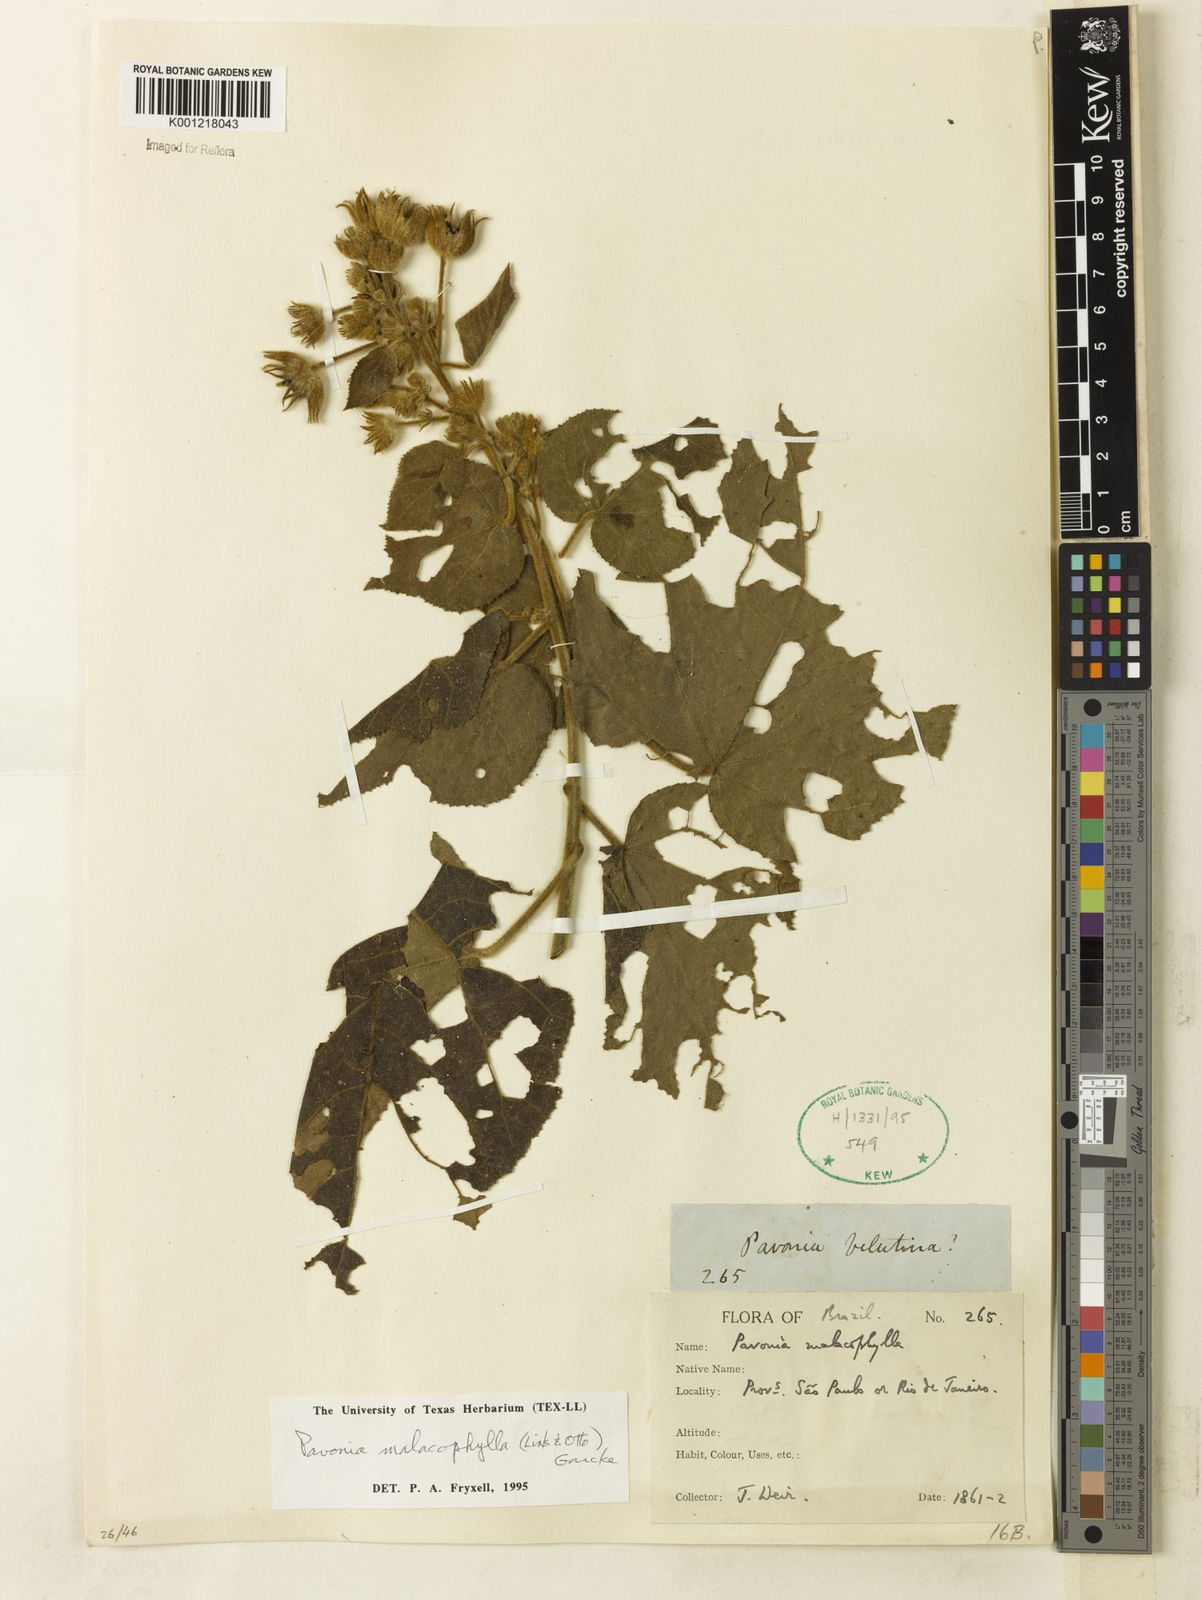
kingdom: Plantae
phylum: Tracheophyta
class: Magnoliopsida
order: Malvales
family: Malvaceae
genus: Pavonia
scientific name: Pavonia malacophylla
